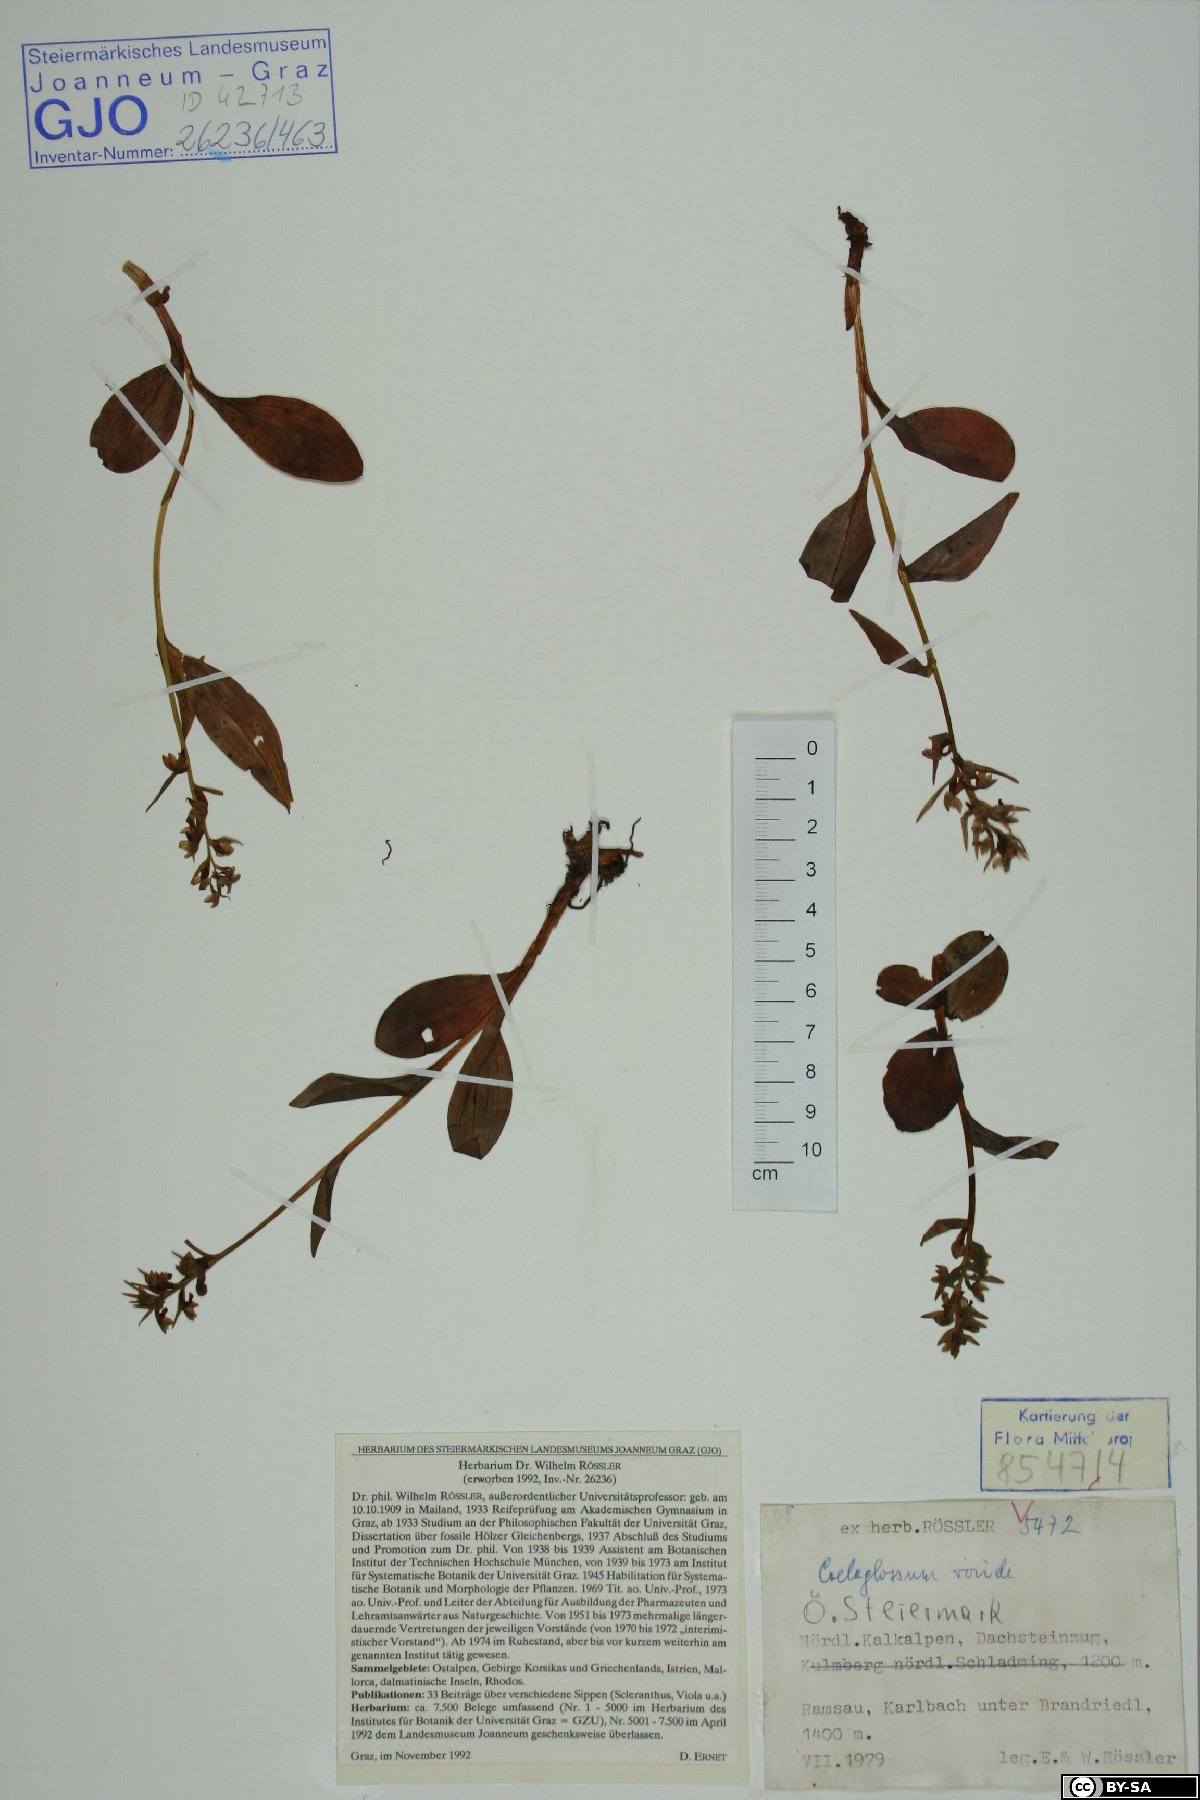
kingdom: Plantae
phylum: Tracheophyta
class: Liliopsida
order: Asparagales
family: Orchidaceae
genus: Dactylorhiza
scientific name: Dactylorhiza viridis
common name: Longbract frog orchid
